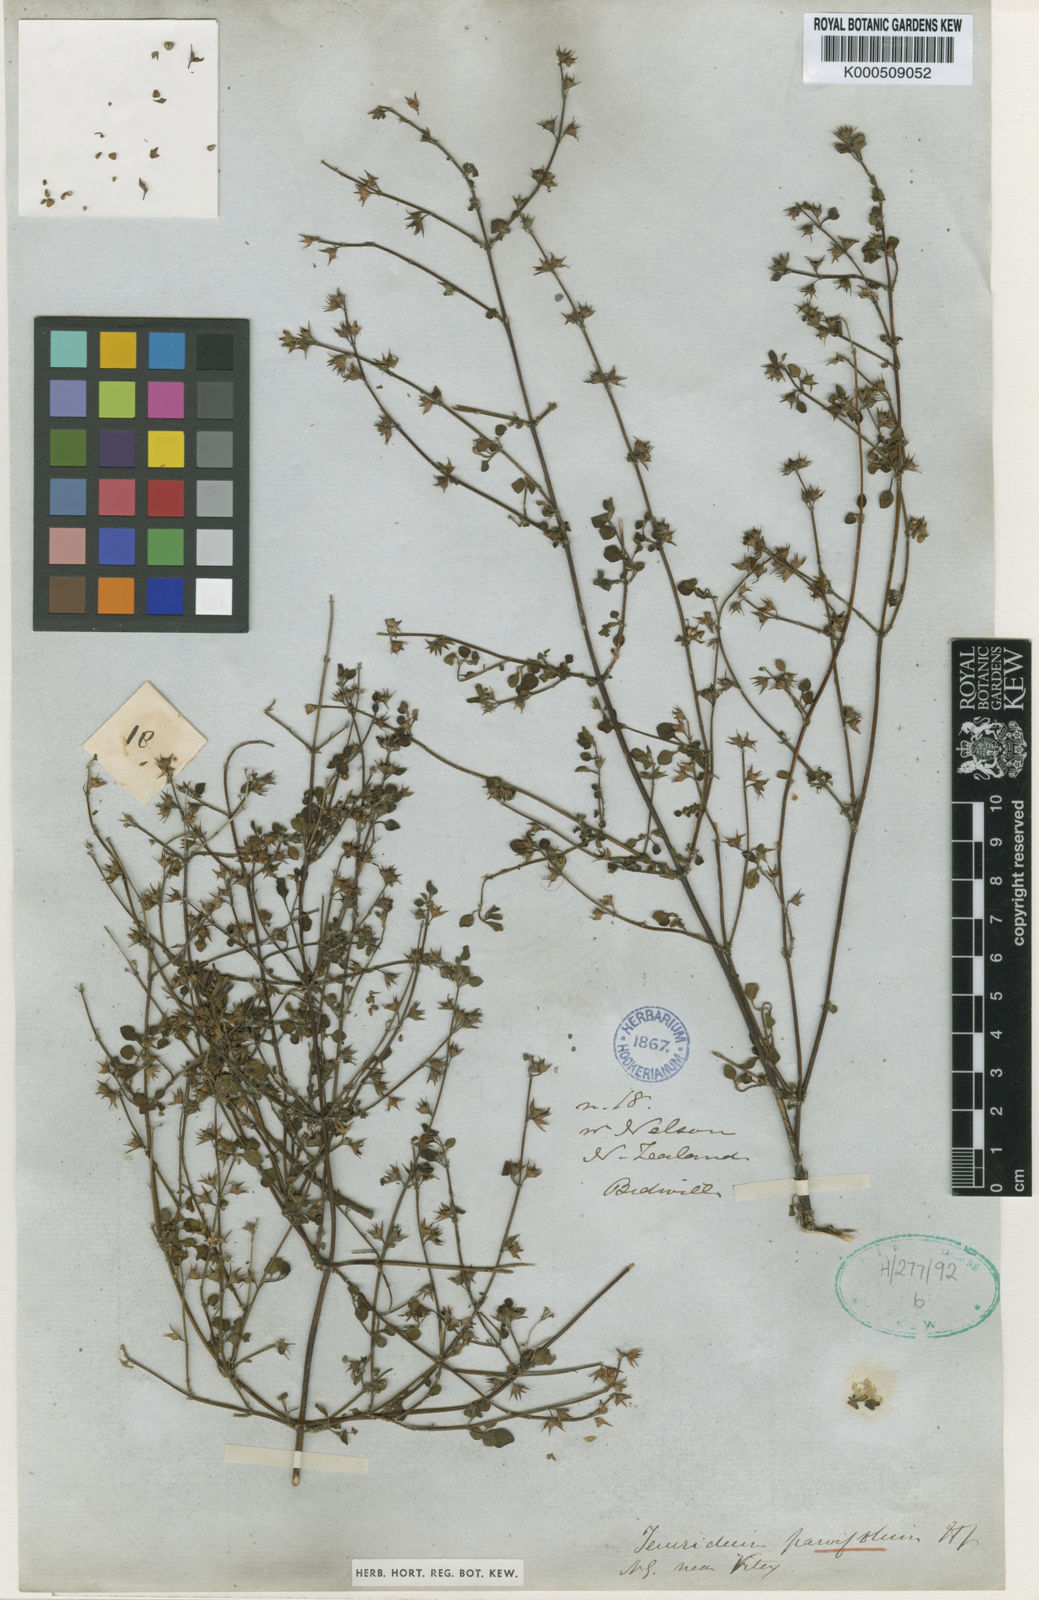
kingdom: Plantae
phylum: Tracheophyta
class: Magnoliopsida
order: Lamiales
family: Lamiaceae
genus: Teucrium
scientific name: Teucrium parvifolium
